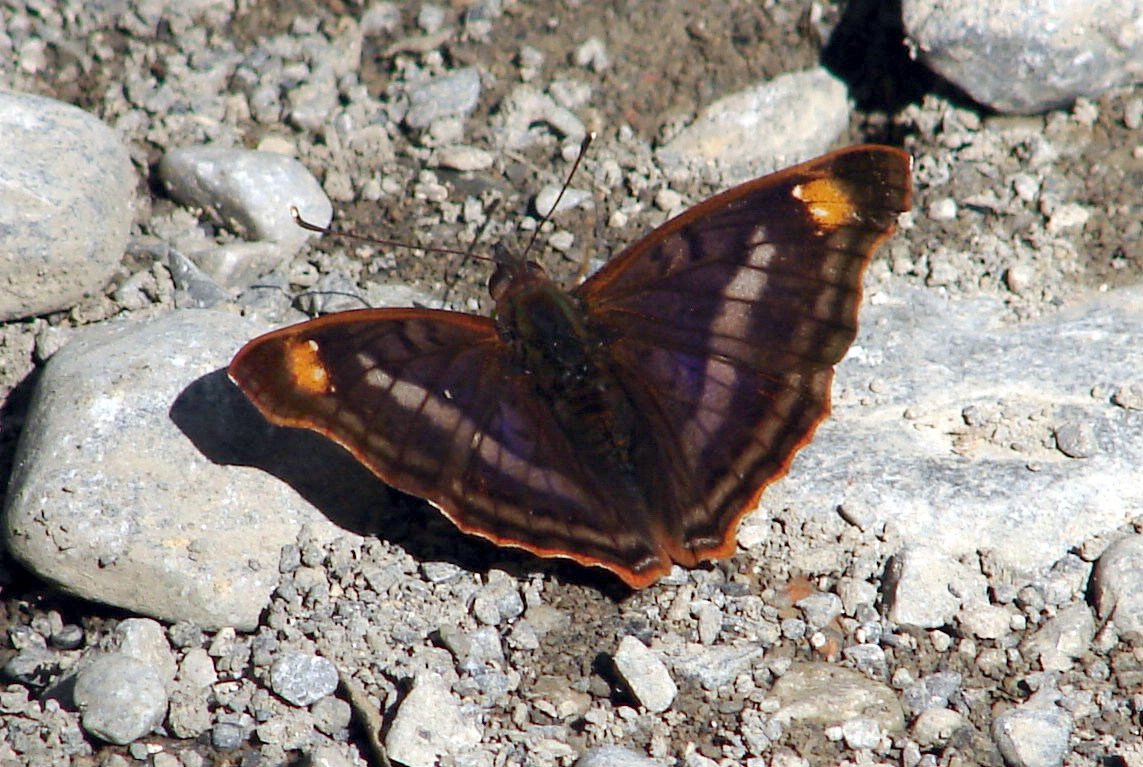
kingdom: Animalia
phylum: Arthropoda
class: Insecta
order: Lepidoptera
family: Nymphalidae
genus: Doxocopa
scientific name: Doxocopa pavon
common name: Pavon Emperor
